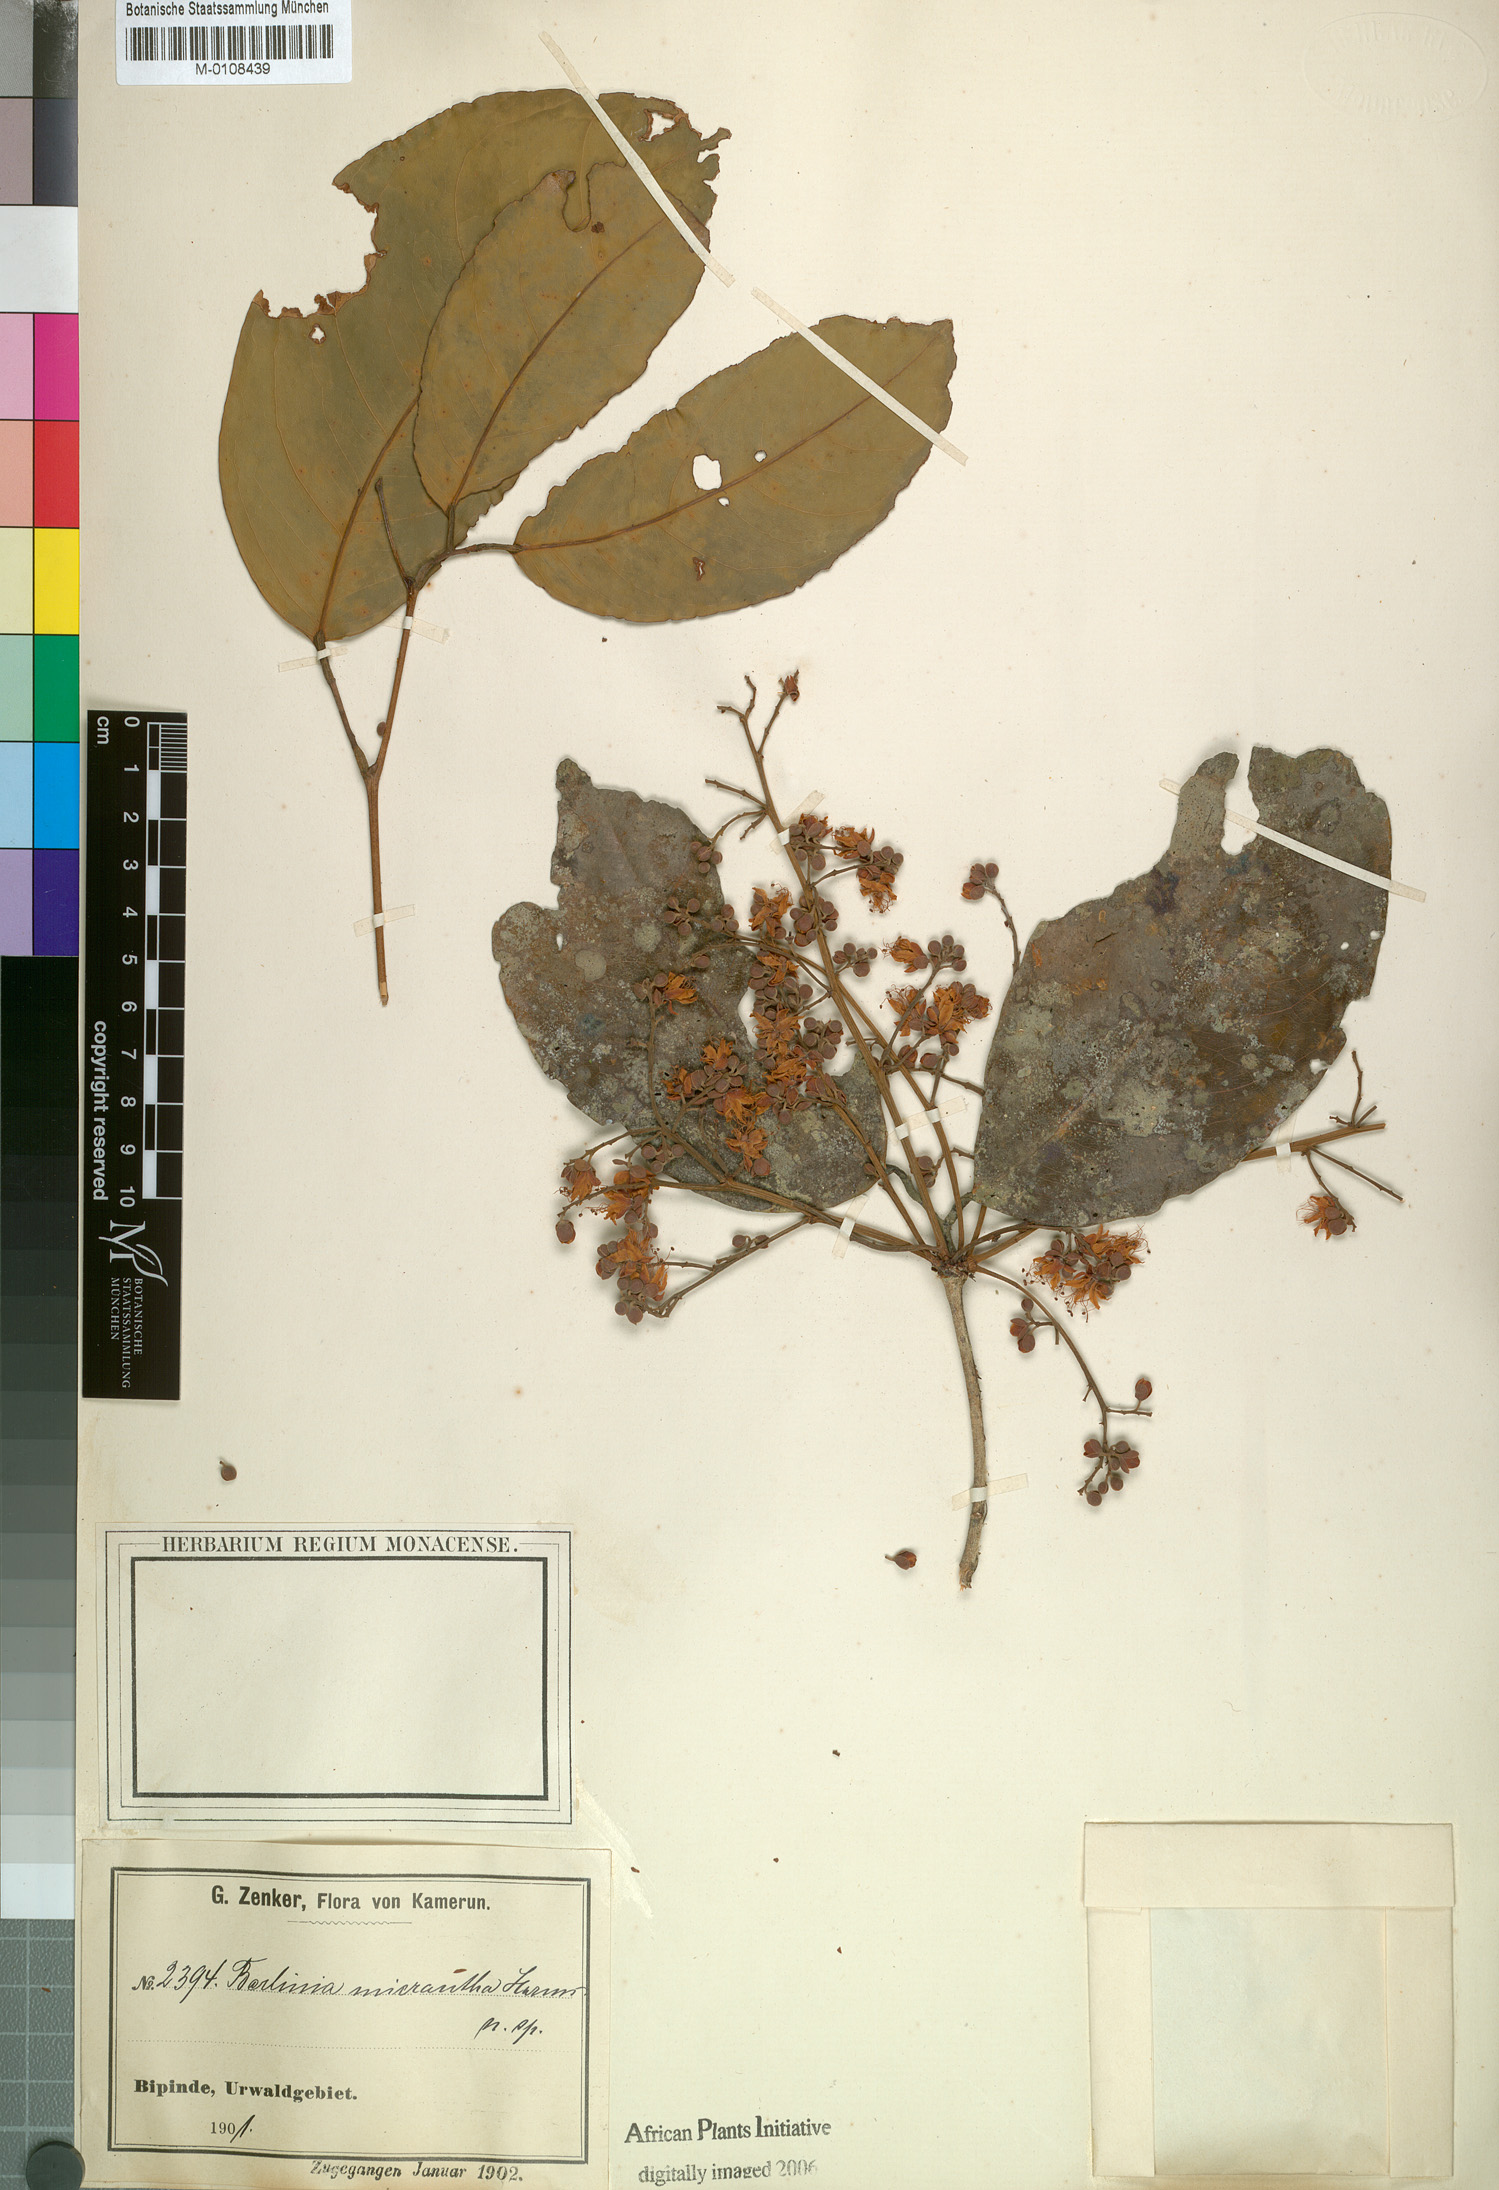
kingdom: Plantae
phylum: Tracheophyta
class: Magnoliopsida
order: Fabales
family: Fabaceae
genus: Oddoniodendron
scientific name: Oddoniodendron micranthum
